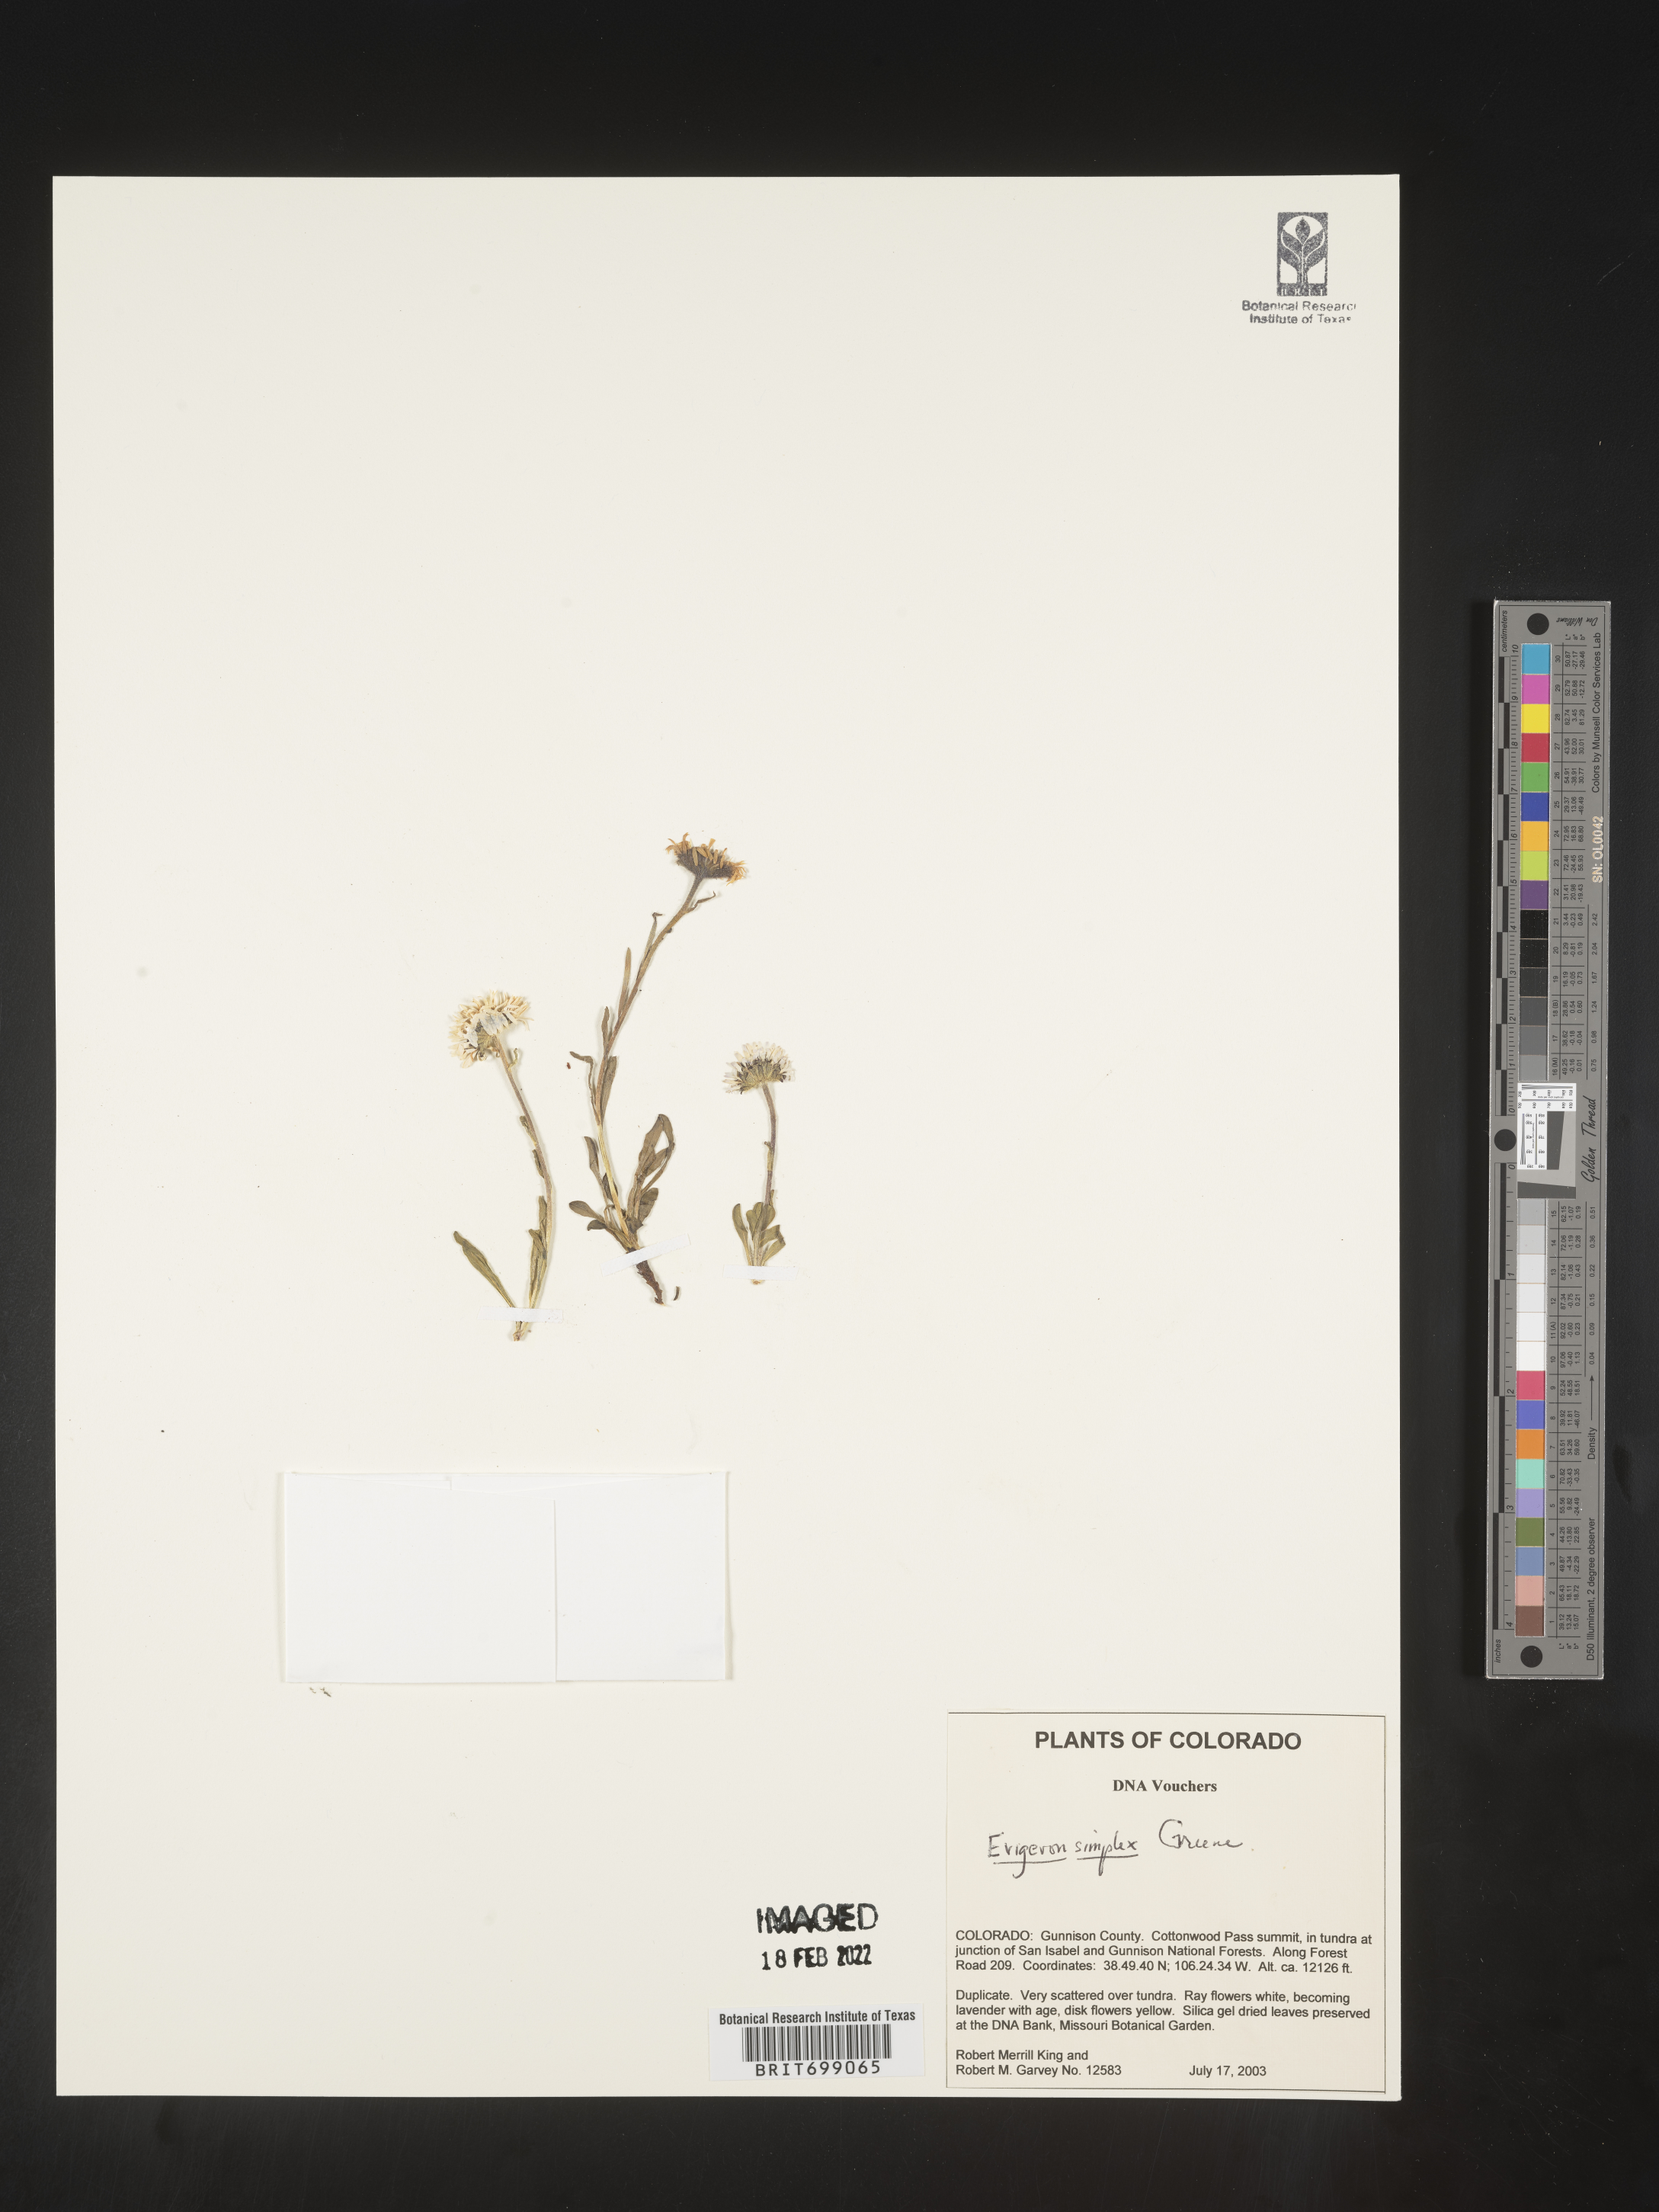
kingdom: Plantae
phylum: Tracheophyta
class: Magnoliopsida
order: Asterales
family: Asteraceae
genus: Erigeron
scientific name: Erigeron caucasicus
